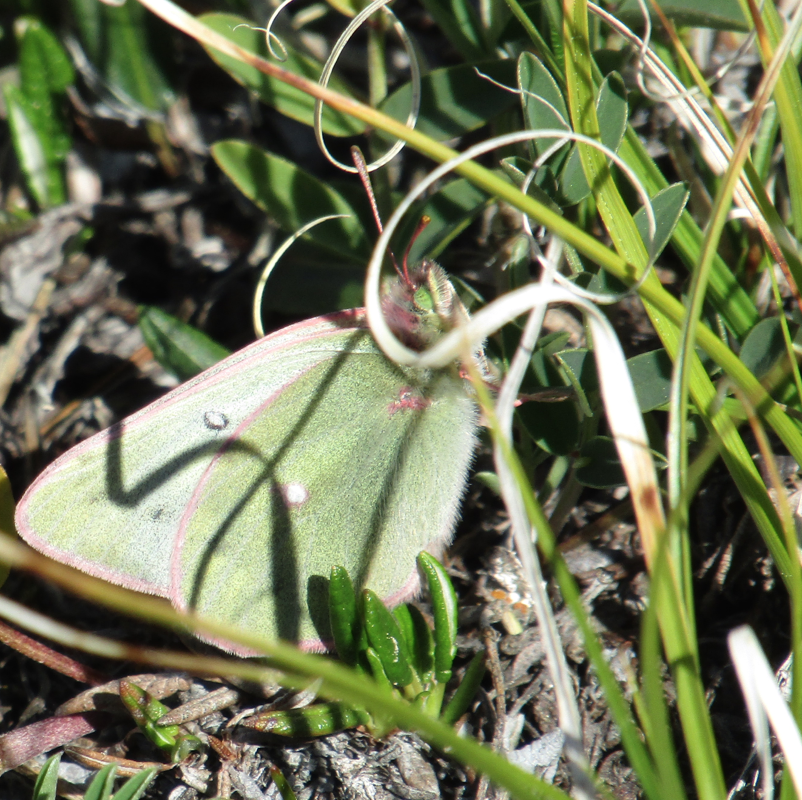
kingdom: Animalia
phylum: Arthropoda
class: Insecta
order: Lepidoptera
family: Pieridae
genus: Colias
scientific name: Colias pelidne
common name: Pelidne Sulphur
